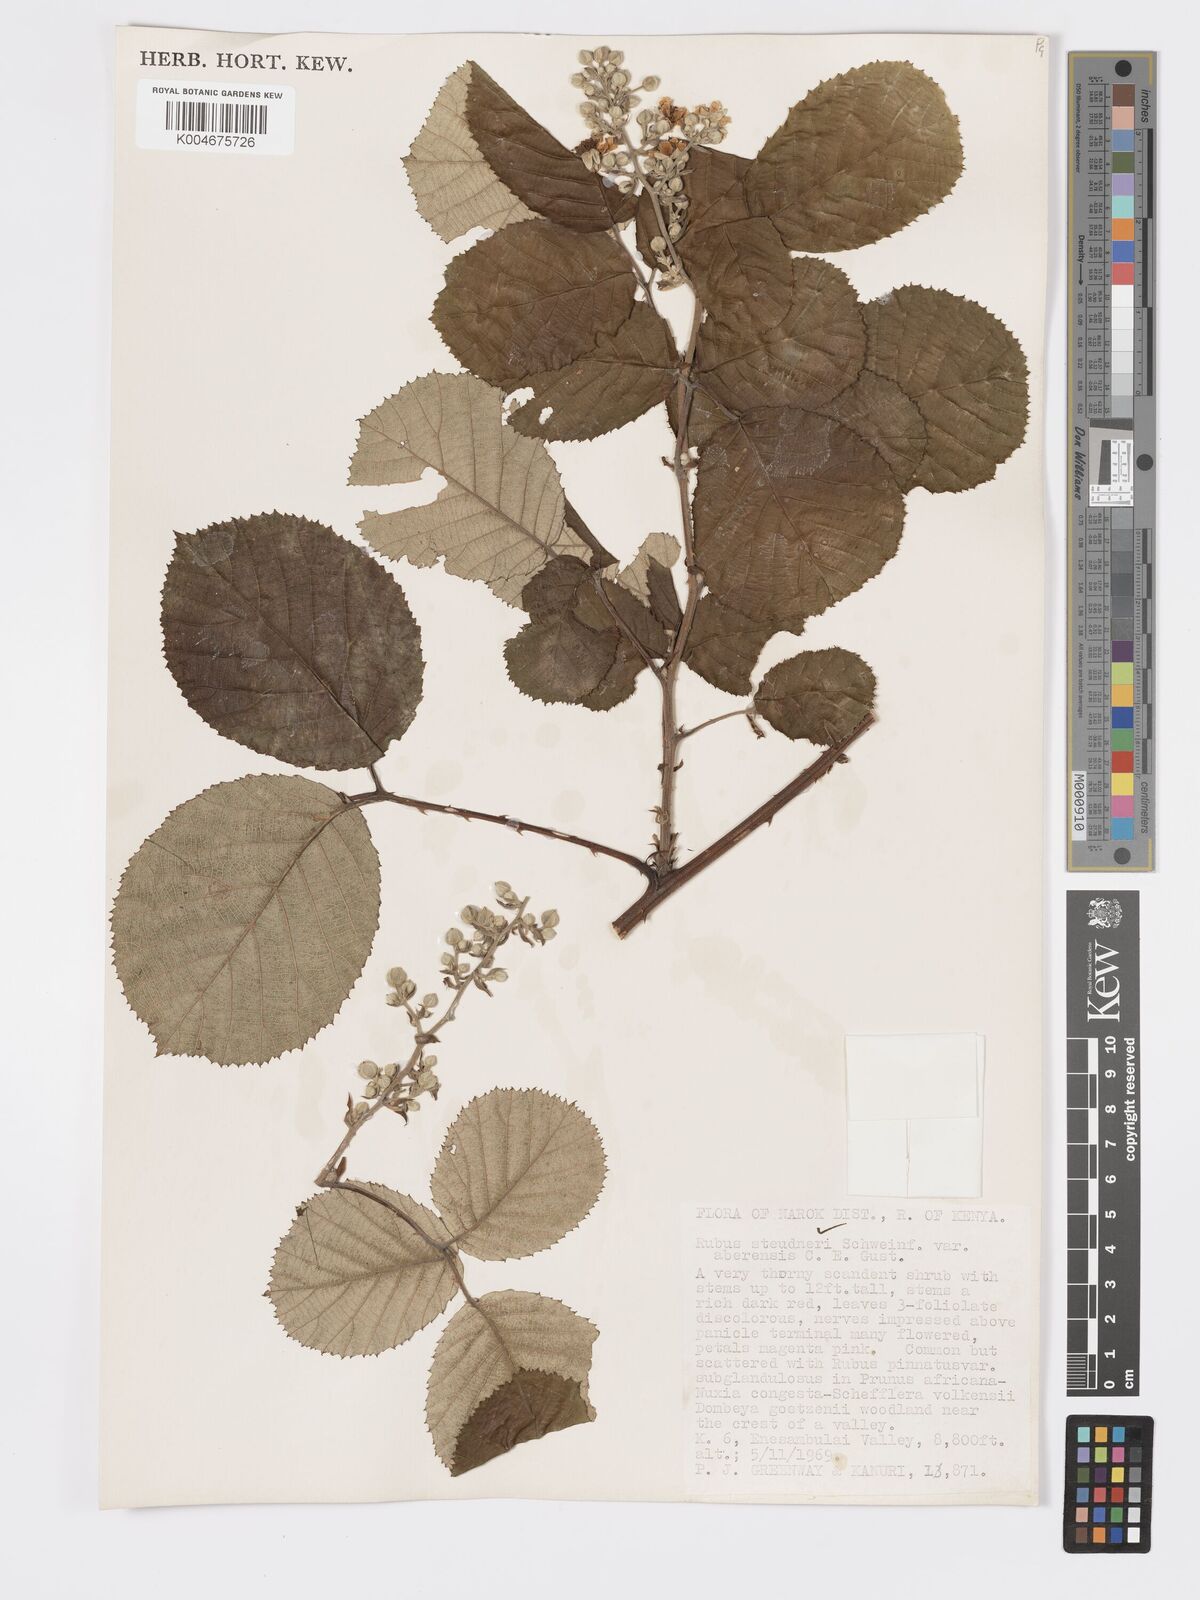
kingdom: Plantae
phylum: Tracheophyta
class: Magnoliopsida
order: Rosales
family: Rosaceae
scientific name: Rosaceae
